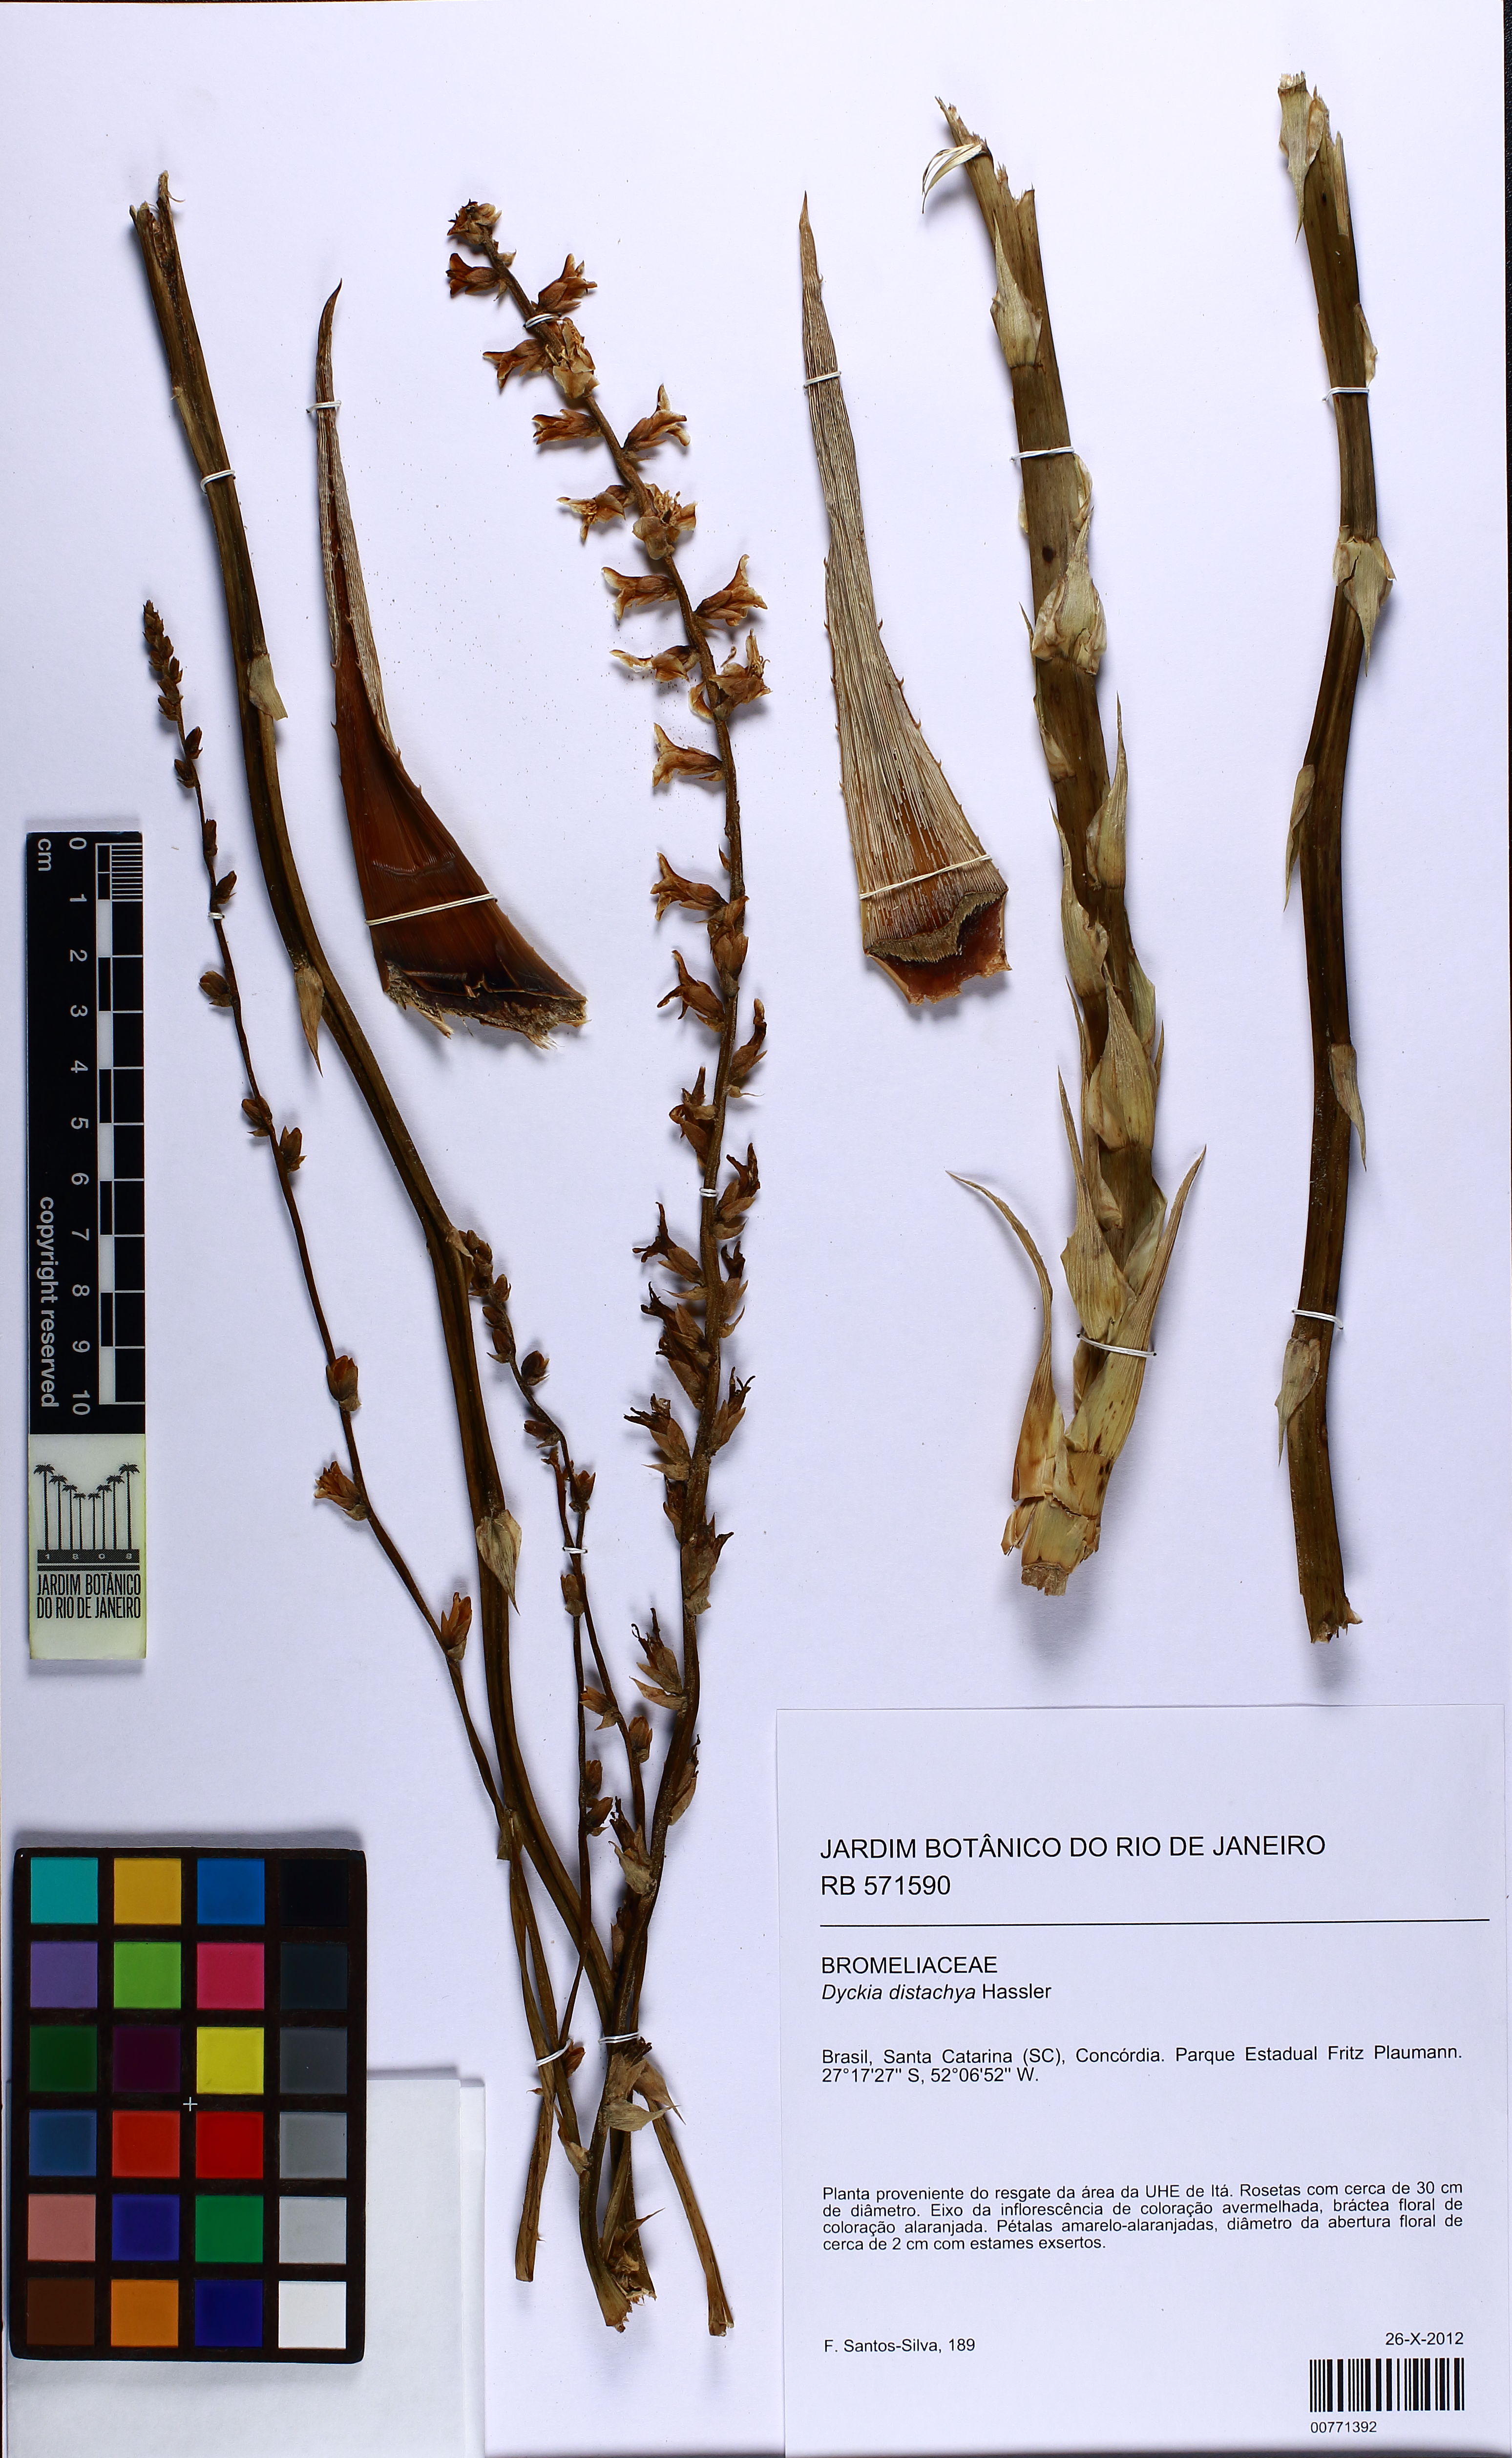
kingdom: Plantae
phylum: Tracheophyta
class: Liliopsida
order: Poales
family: Bromeliaceae
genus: Dyckia
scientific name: Dyckia distachya
